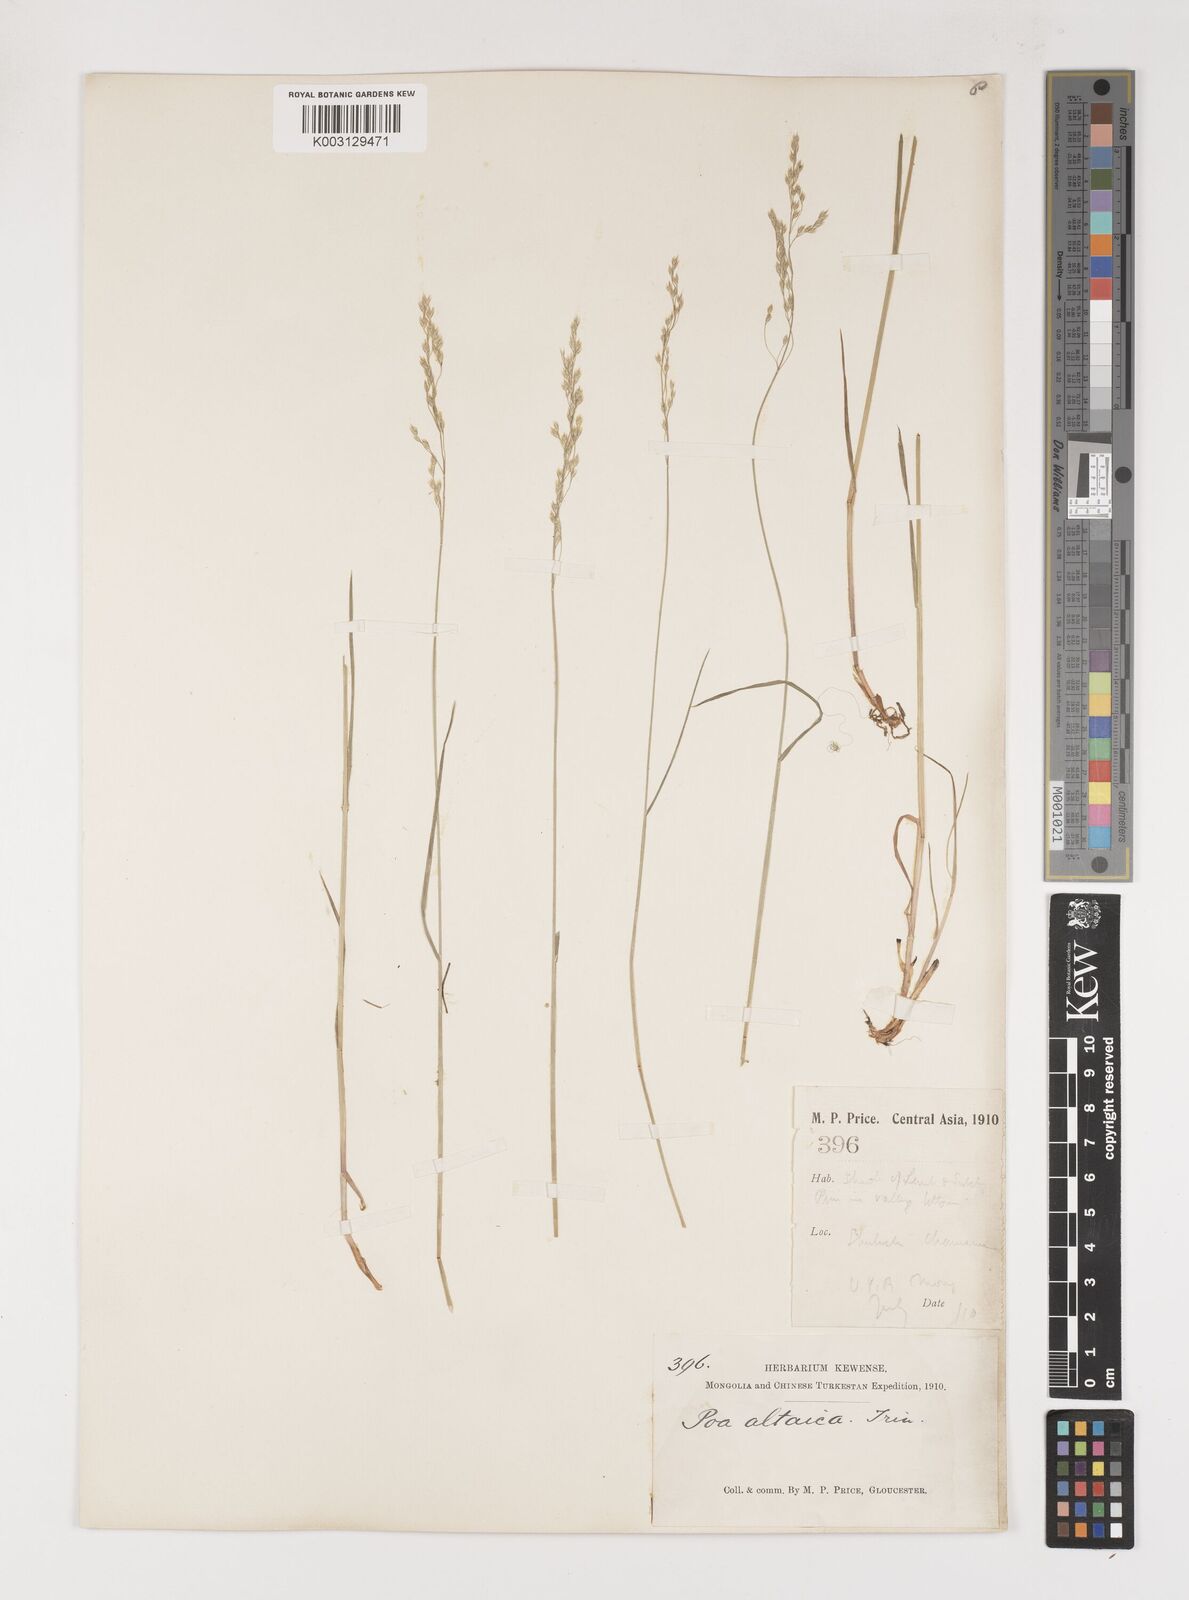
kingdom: Plantae
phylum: Tracheophyta
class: Liliopsida
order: Poales
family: Poaceae
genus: Poa
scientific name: Poa glauca
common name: Glaucous bluegrass
